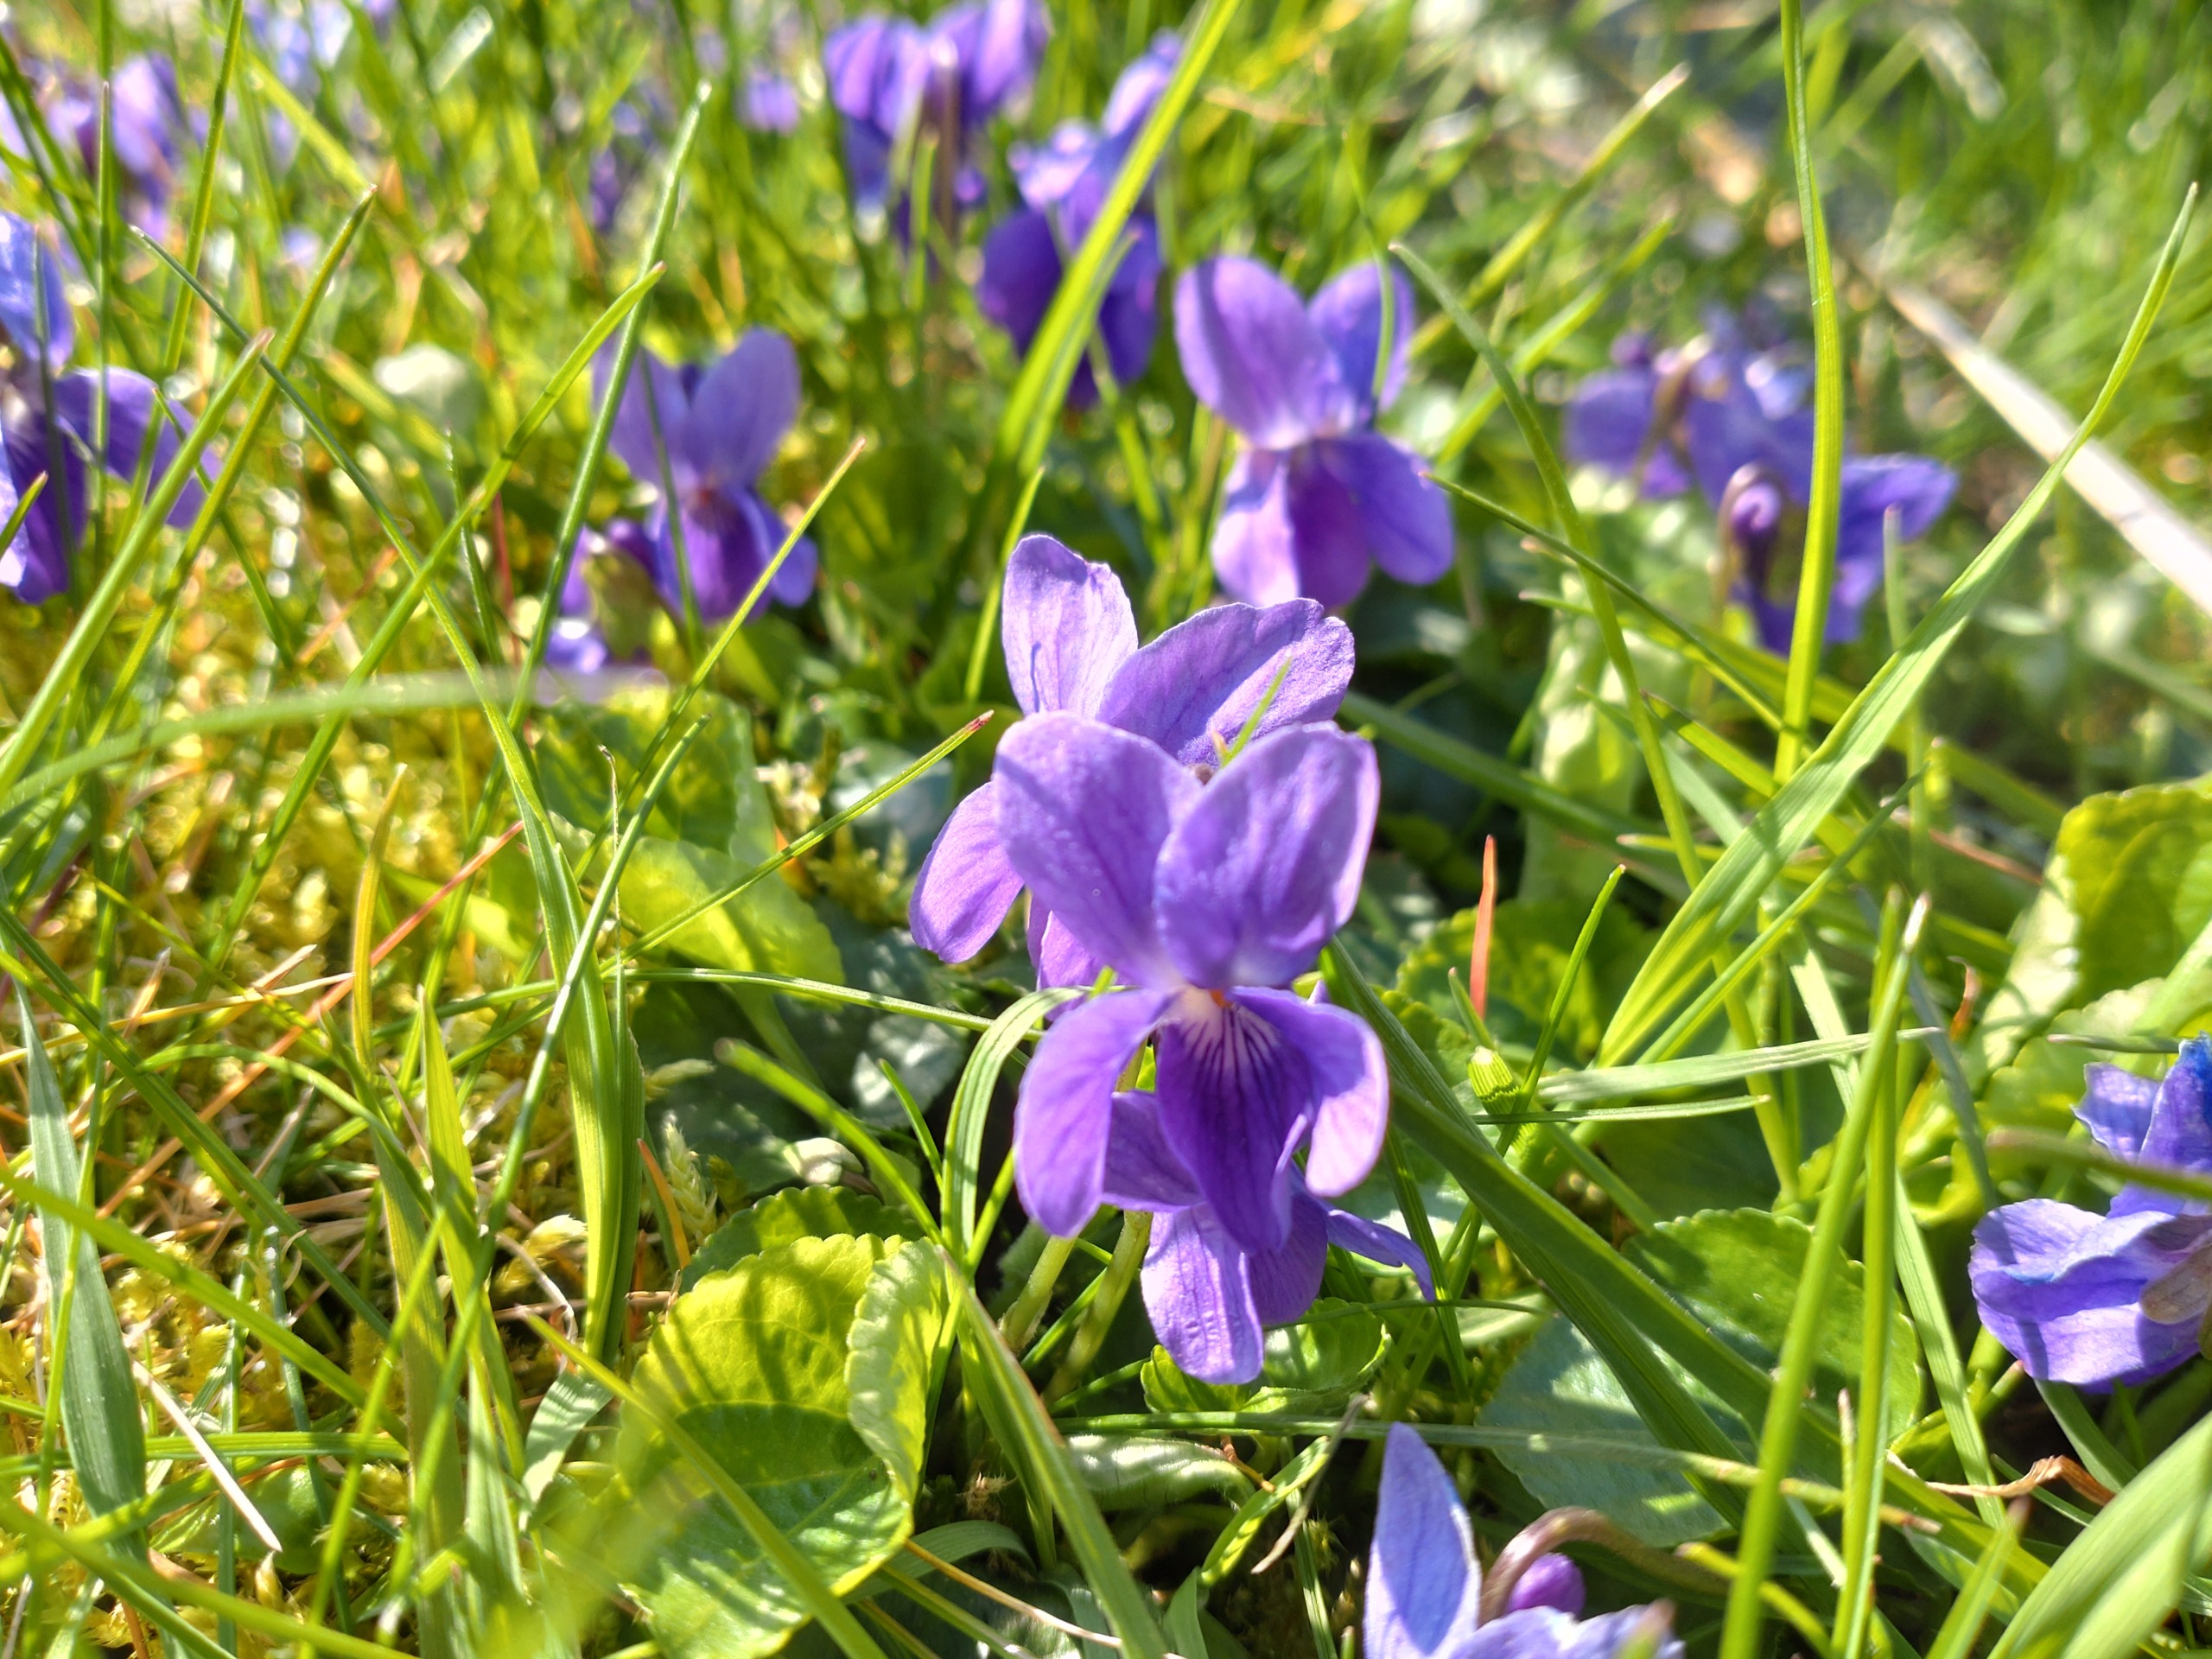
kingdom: Plantae
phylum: Tracheophyta
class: Magnoliopsida
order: Malpighiales
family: Violaceae
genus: Viola
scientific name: Viola odorata
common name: Marts-viol
